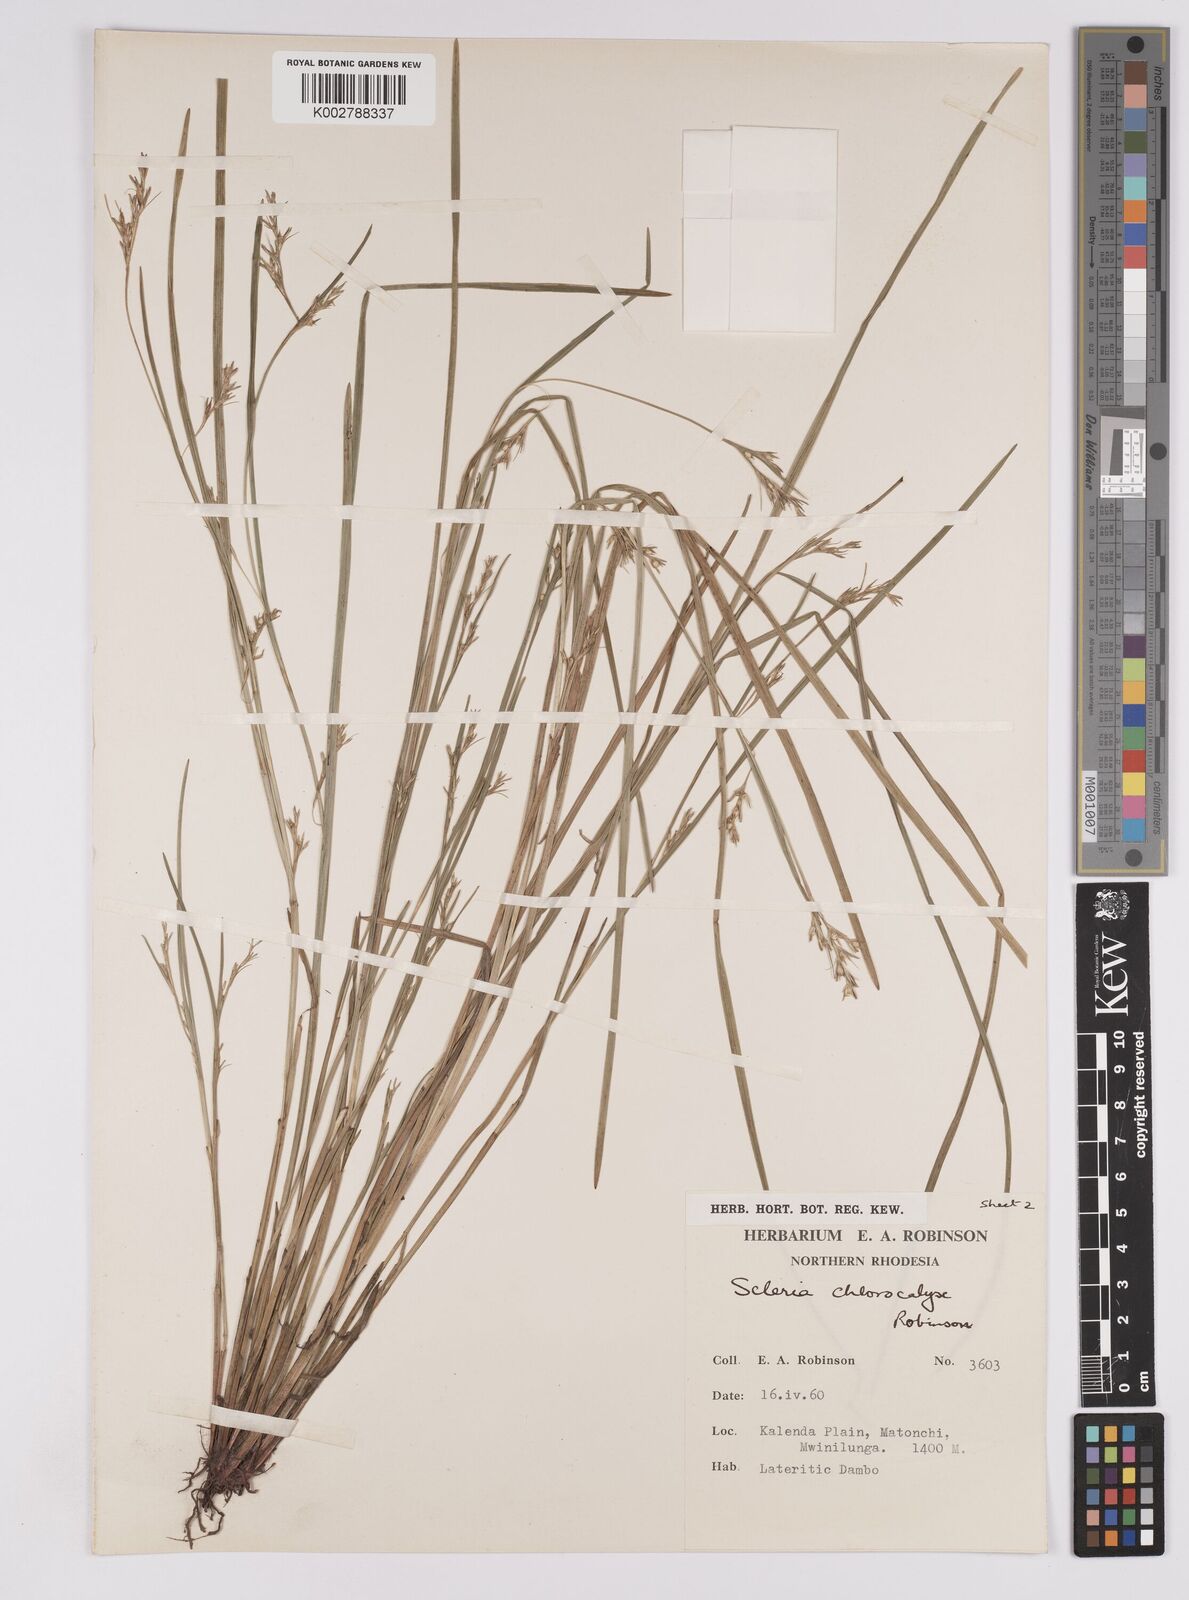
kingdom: Plantae
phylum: Tracheophyta
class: Liliopsida
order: Poales
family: Cyperaceae
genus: Scleria
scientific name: Scleria chlorocalyx
